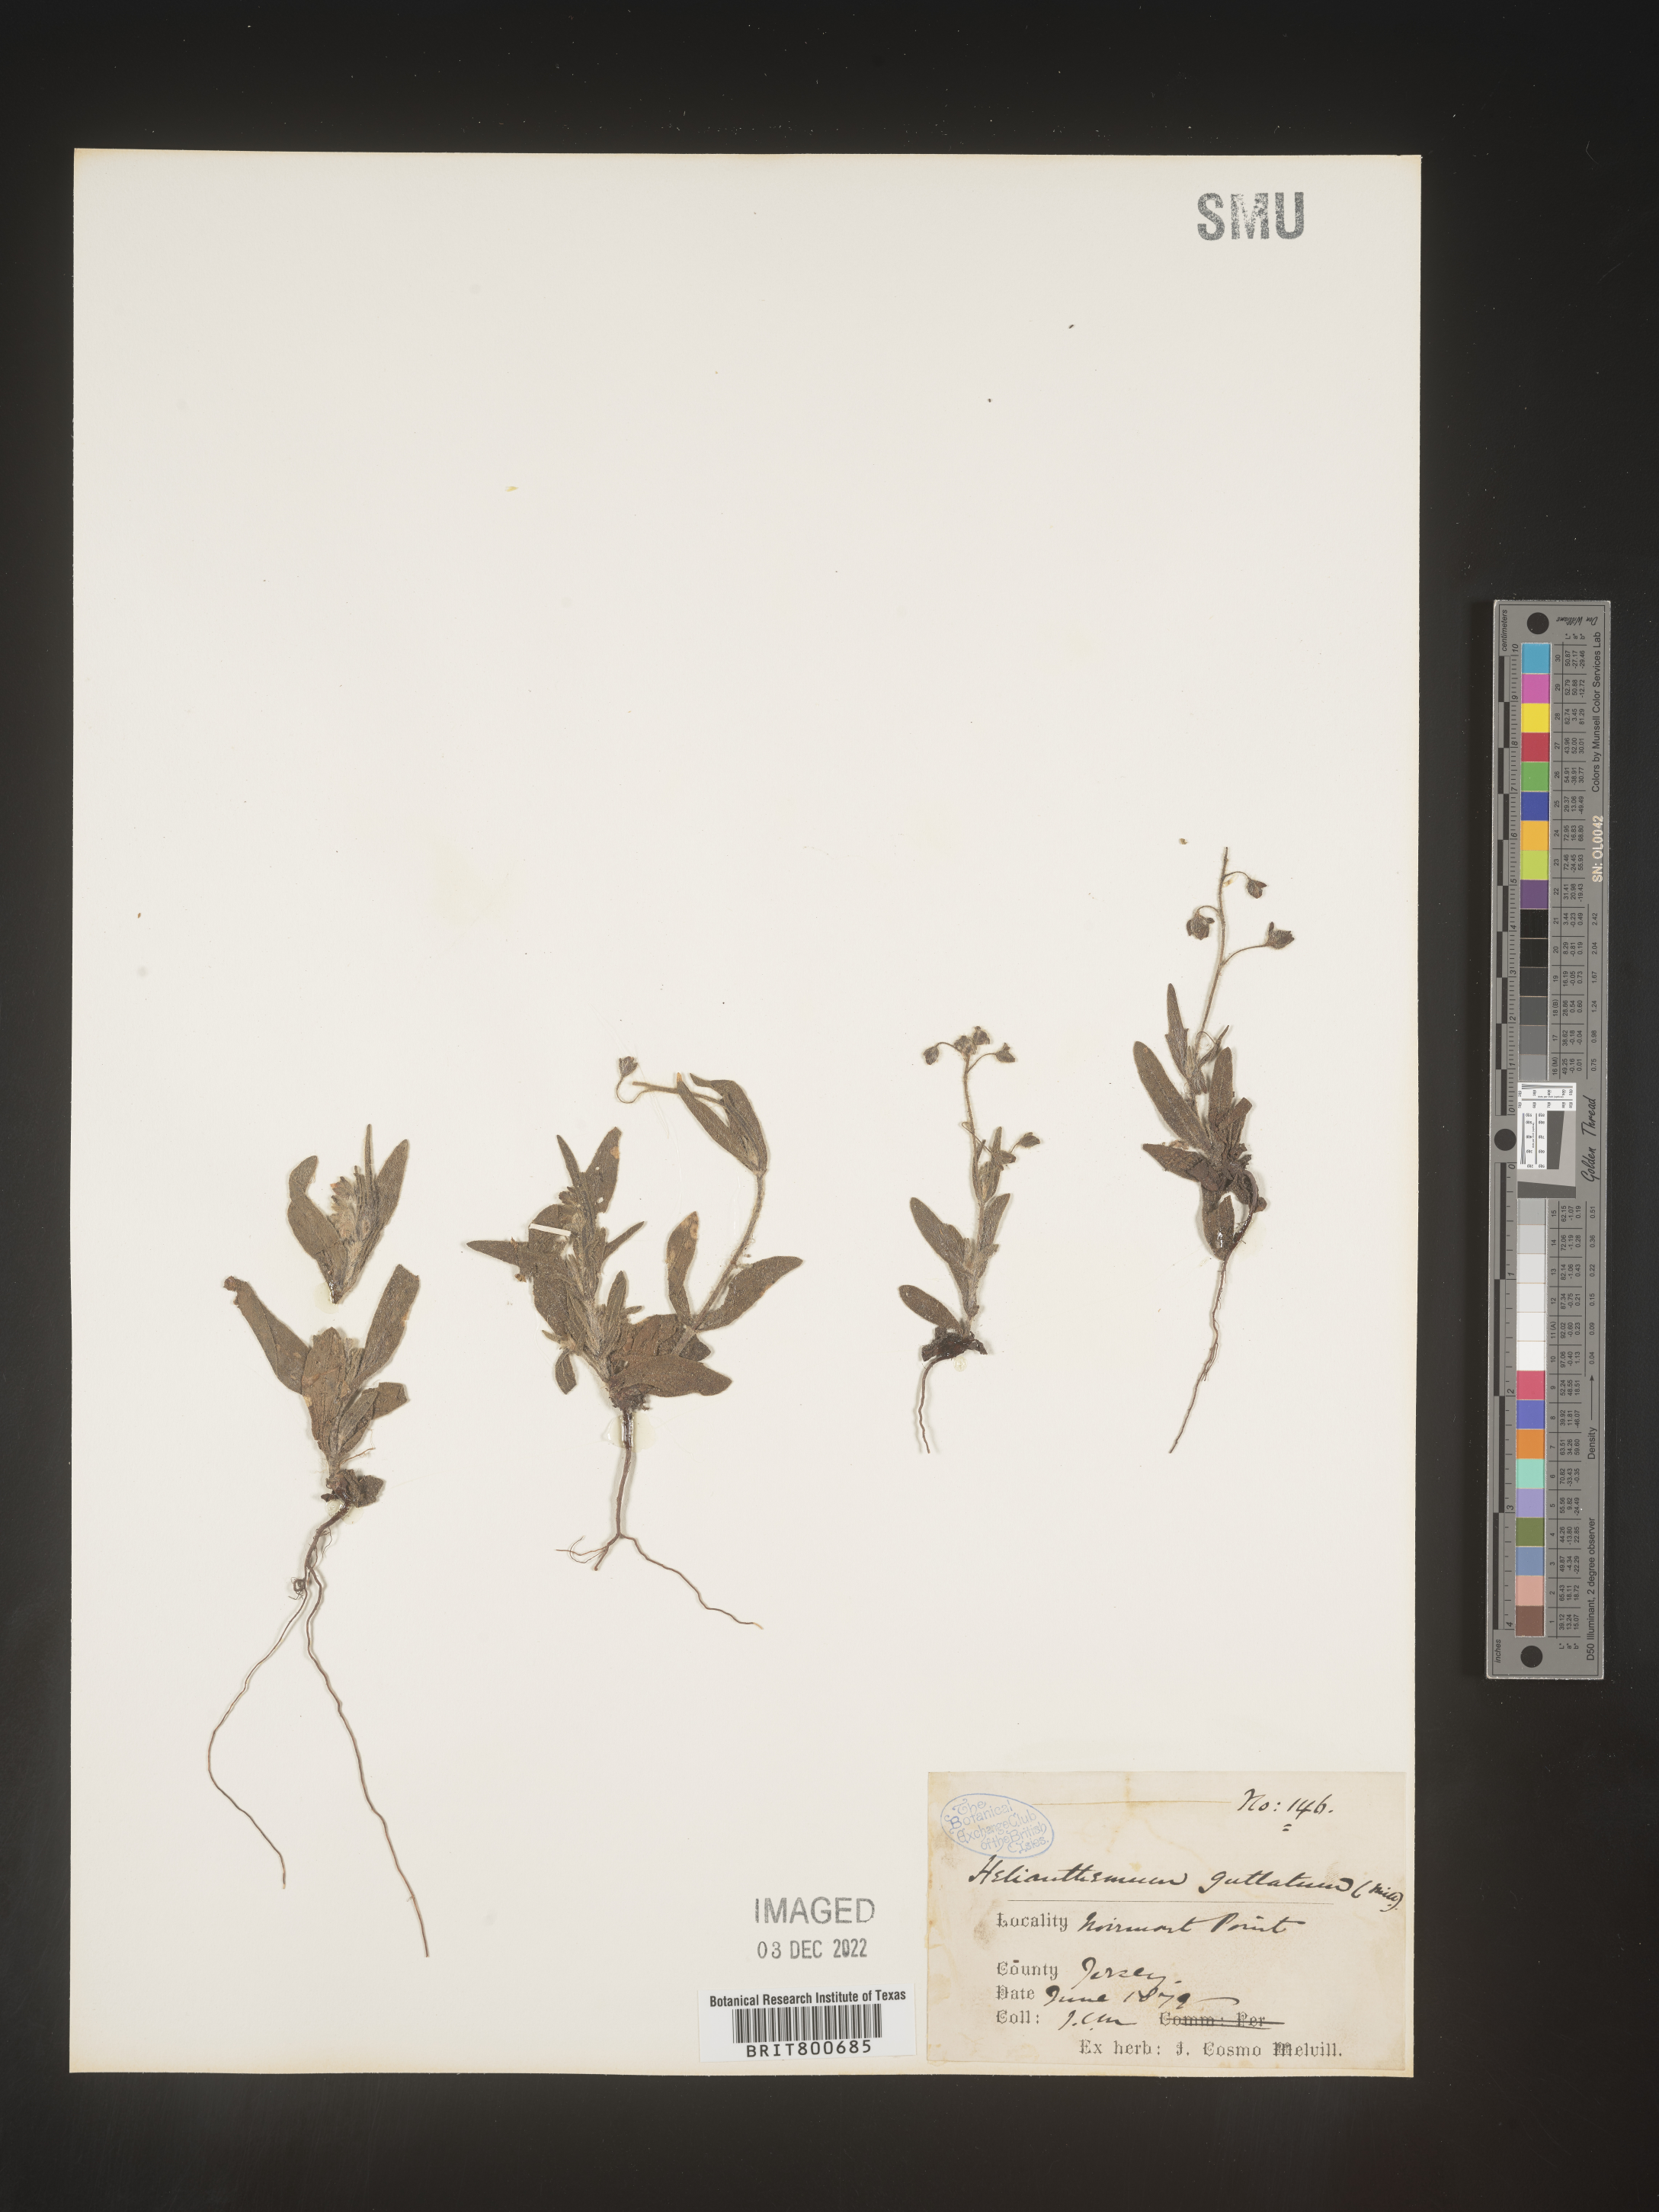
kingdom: Plantae
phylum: Tracheophyta
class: Magnoliopsida
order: Malvales
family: Cistaceae
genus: Helianthemum
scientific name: Helianthemum
